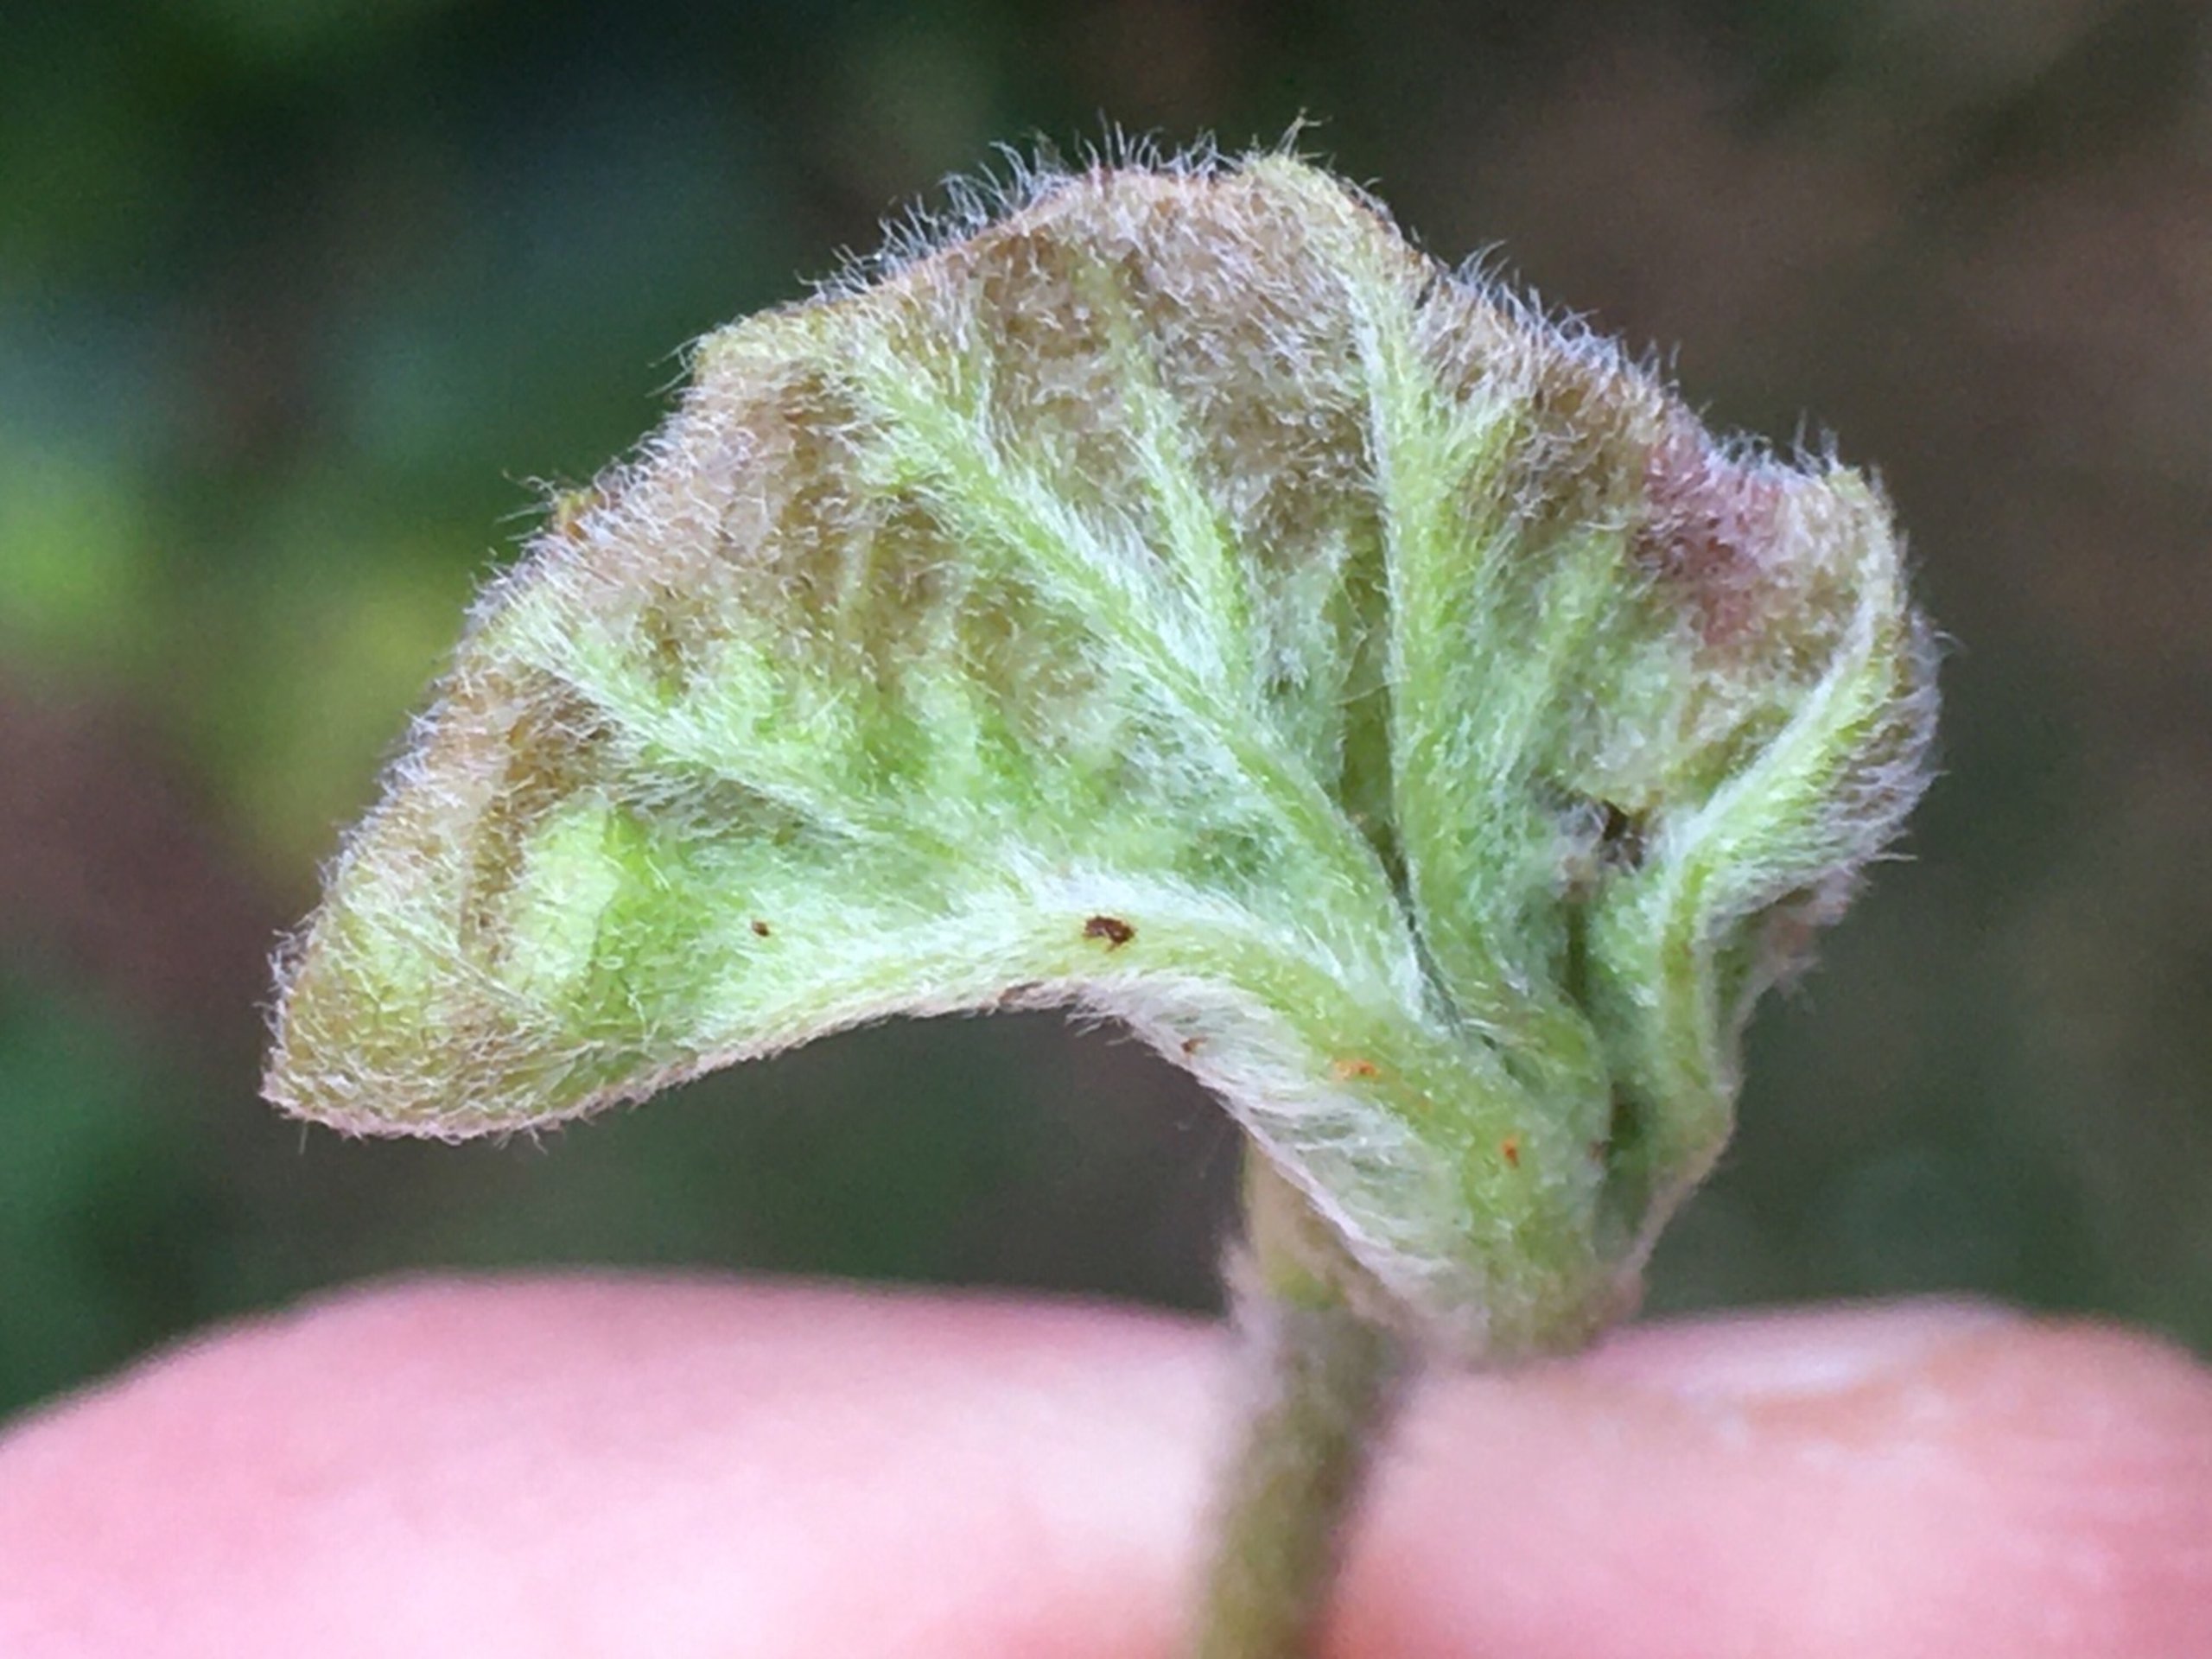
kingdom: Animalia
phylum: Arthropoda
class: Insecta
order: Diptera
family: Cecidomyiidae
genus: Contarinia
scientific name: Contarinia fagi
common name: Bøgekrusegalmyg
